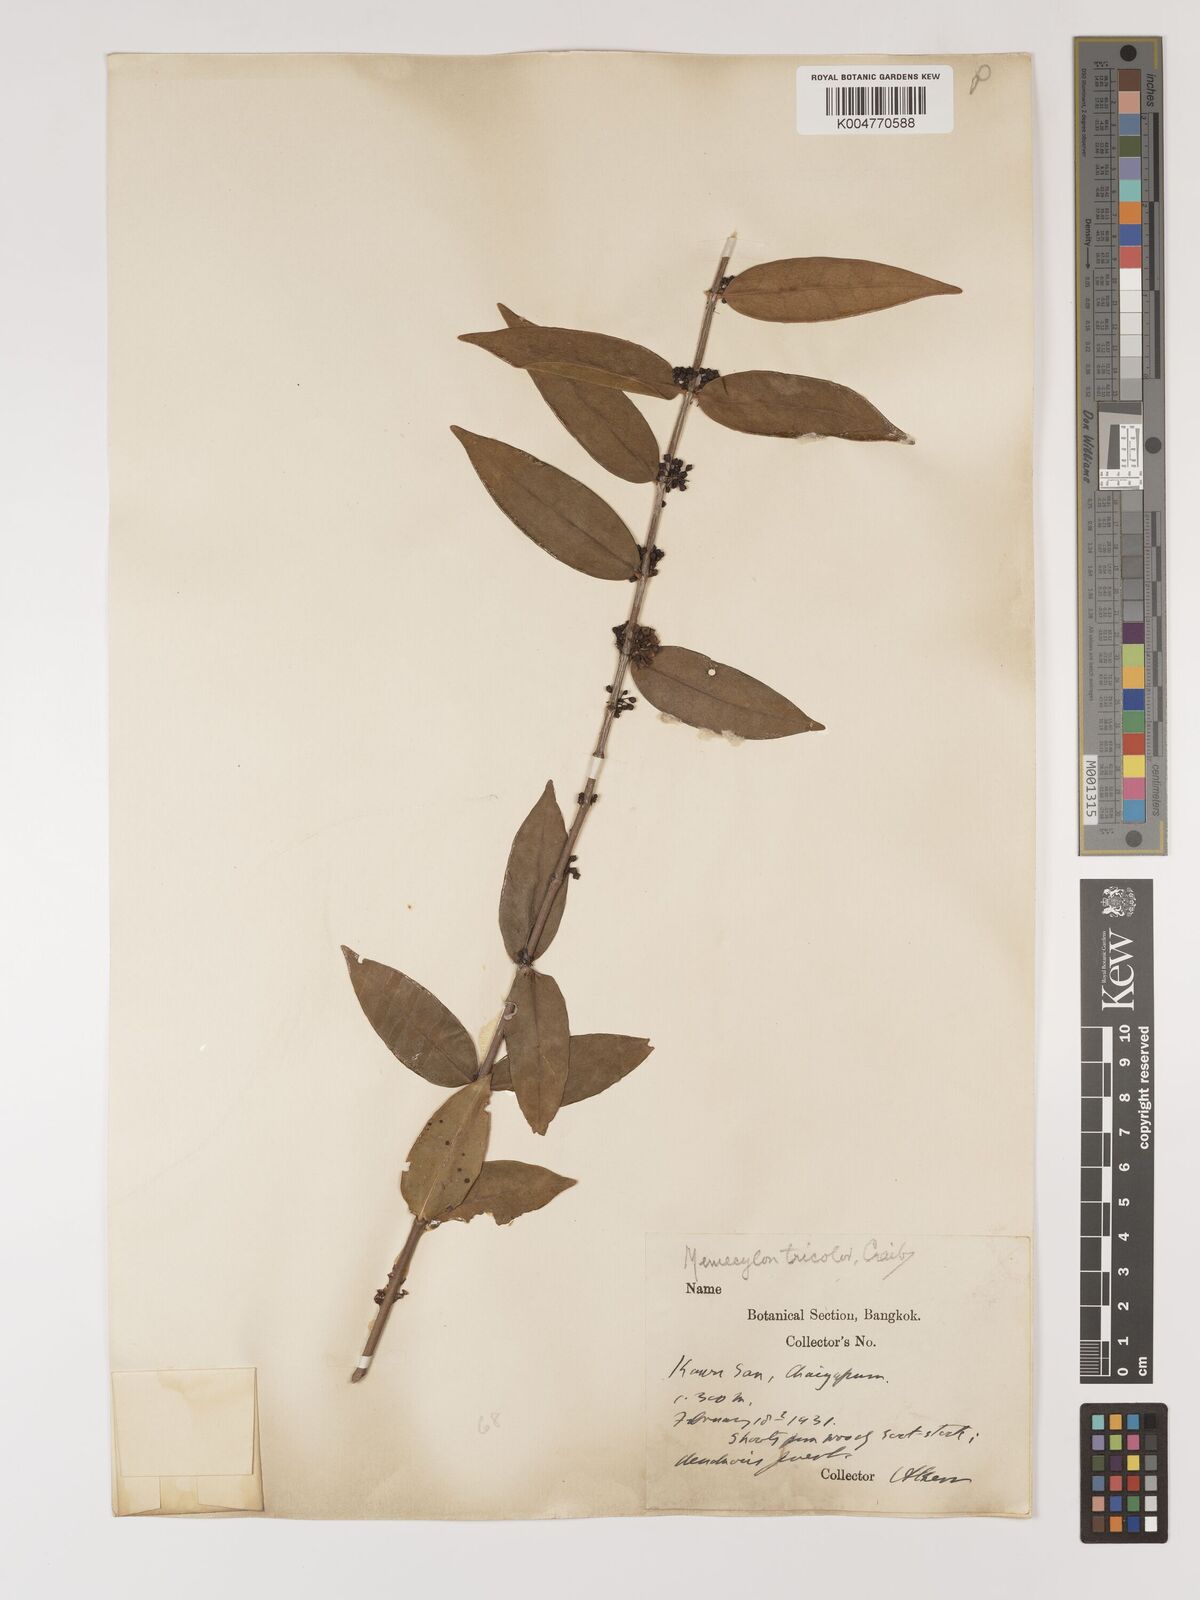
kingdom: Plantae
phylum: Tracheophyta
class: Magnoliopsida
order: Myrtales
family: Melastomataceae
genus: Memecylon
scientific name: Memecylon tricolor
